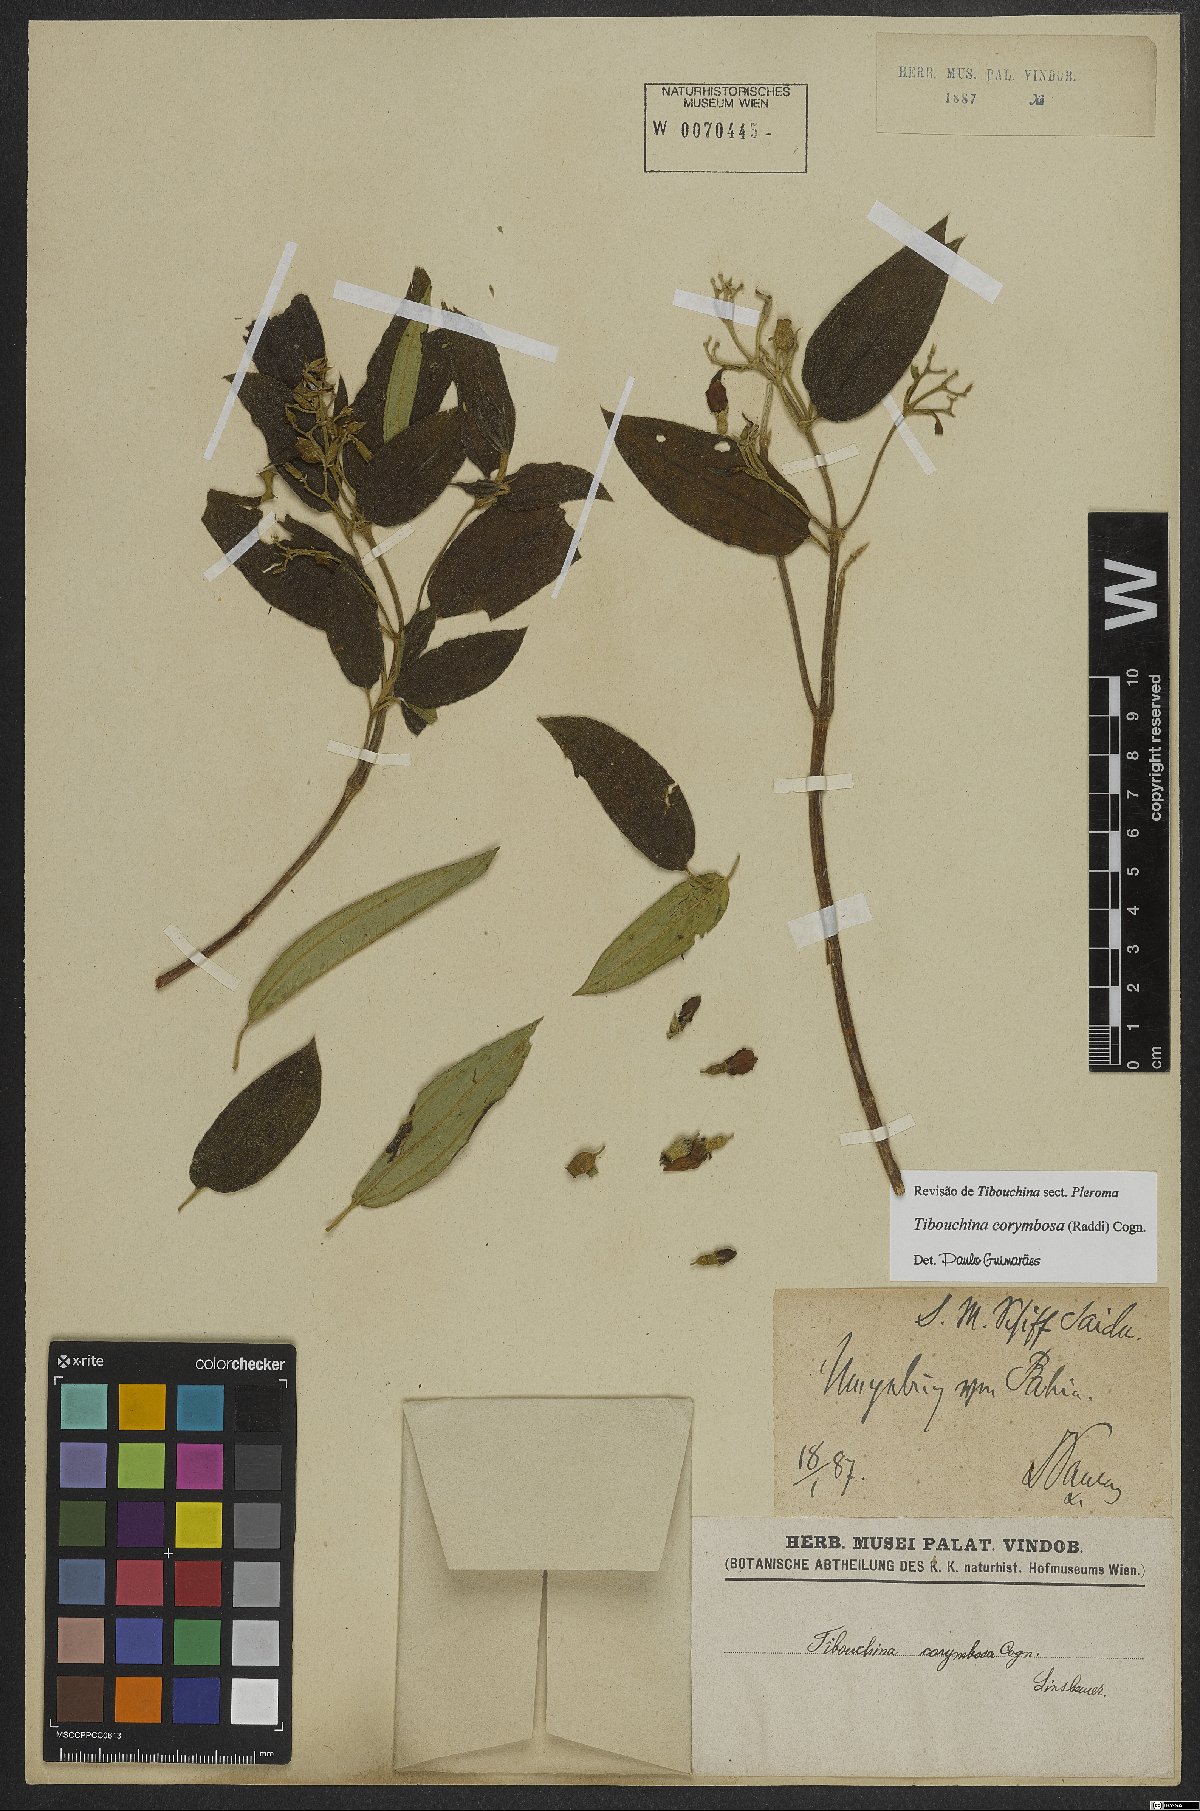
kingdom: Plantae
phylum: Tracheophyta
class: Magnoliopsida
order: Myrtales
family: Melastomataceae
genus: Pleroma
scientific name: Pleroma vimineum
